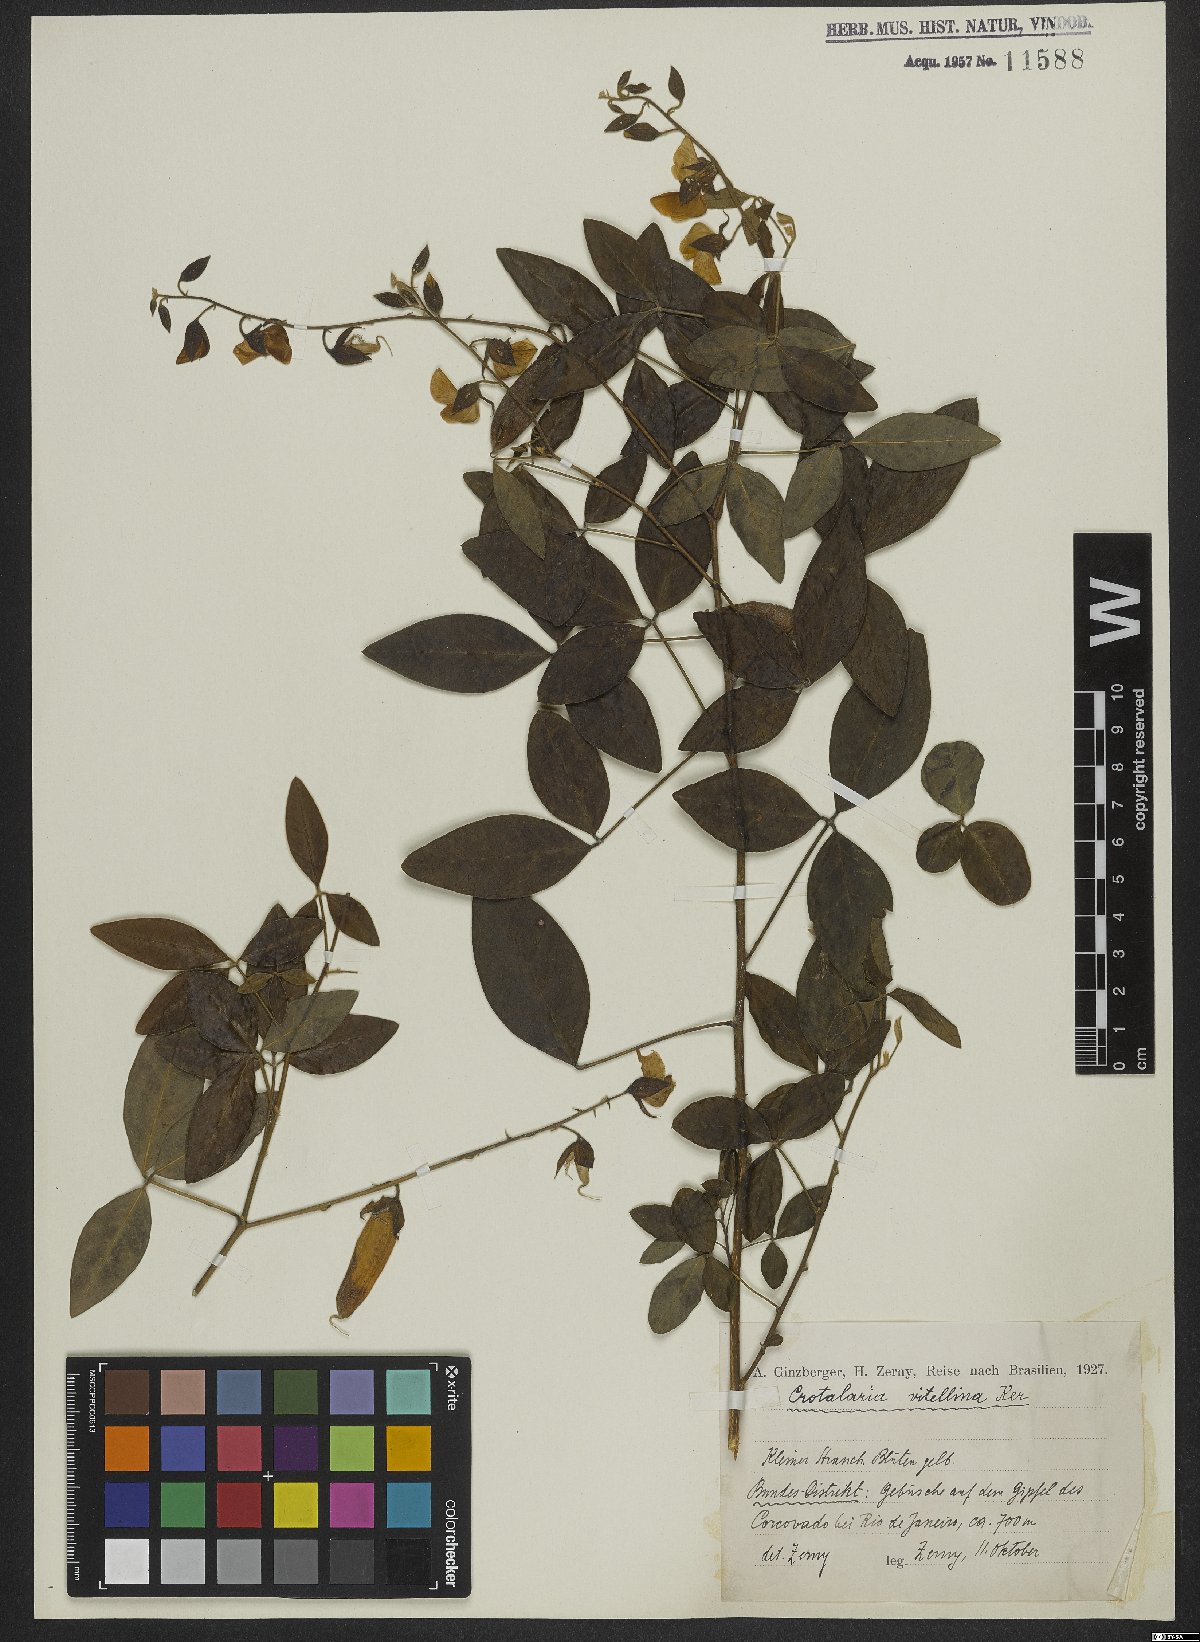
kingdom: Plantae
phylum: Tracheophyta
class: Magnoliopsida
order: Fabales
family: Fabaceae
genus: Crotalaria
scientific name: Crotalaria vitellina
